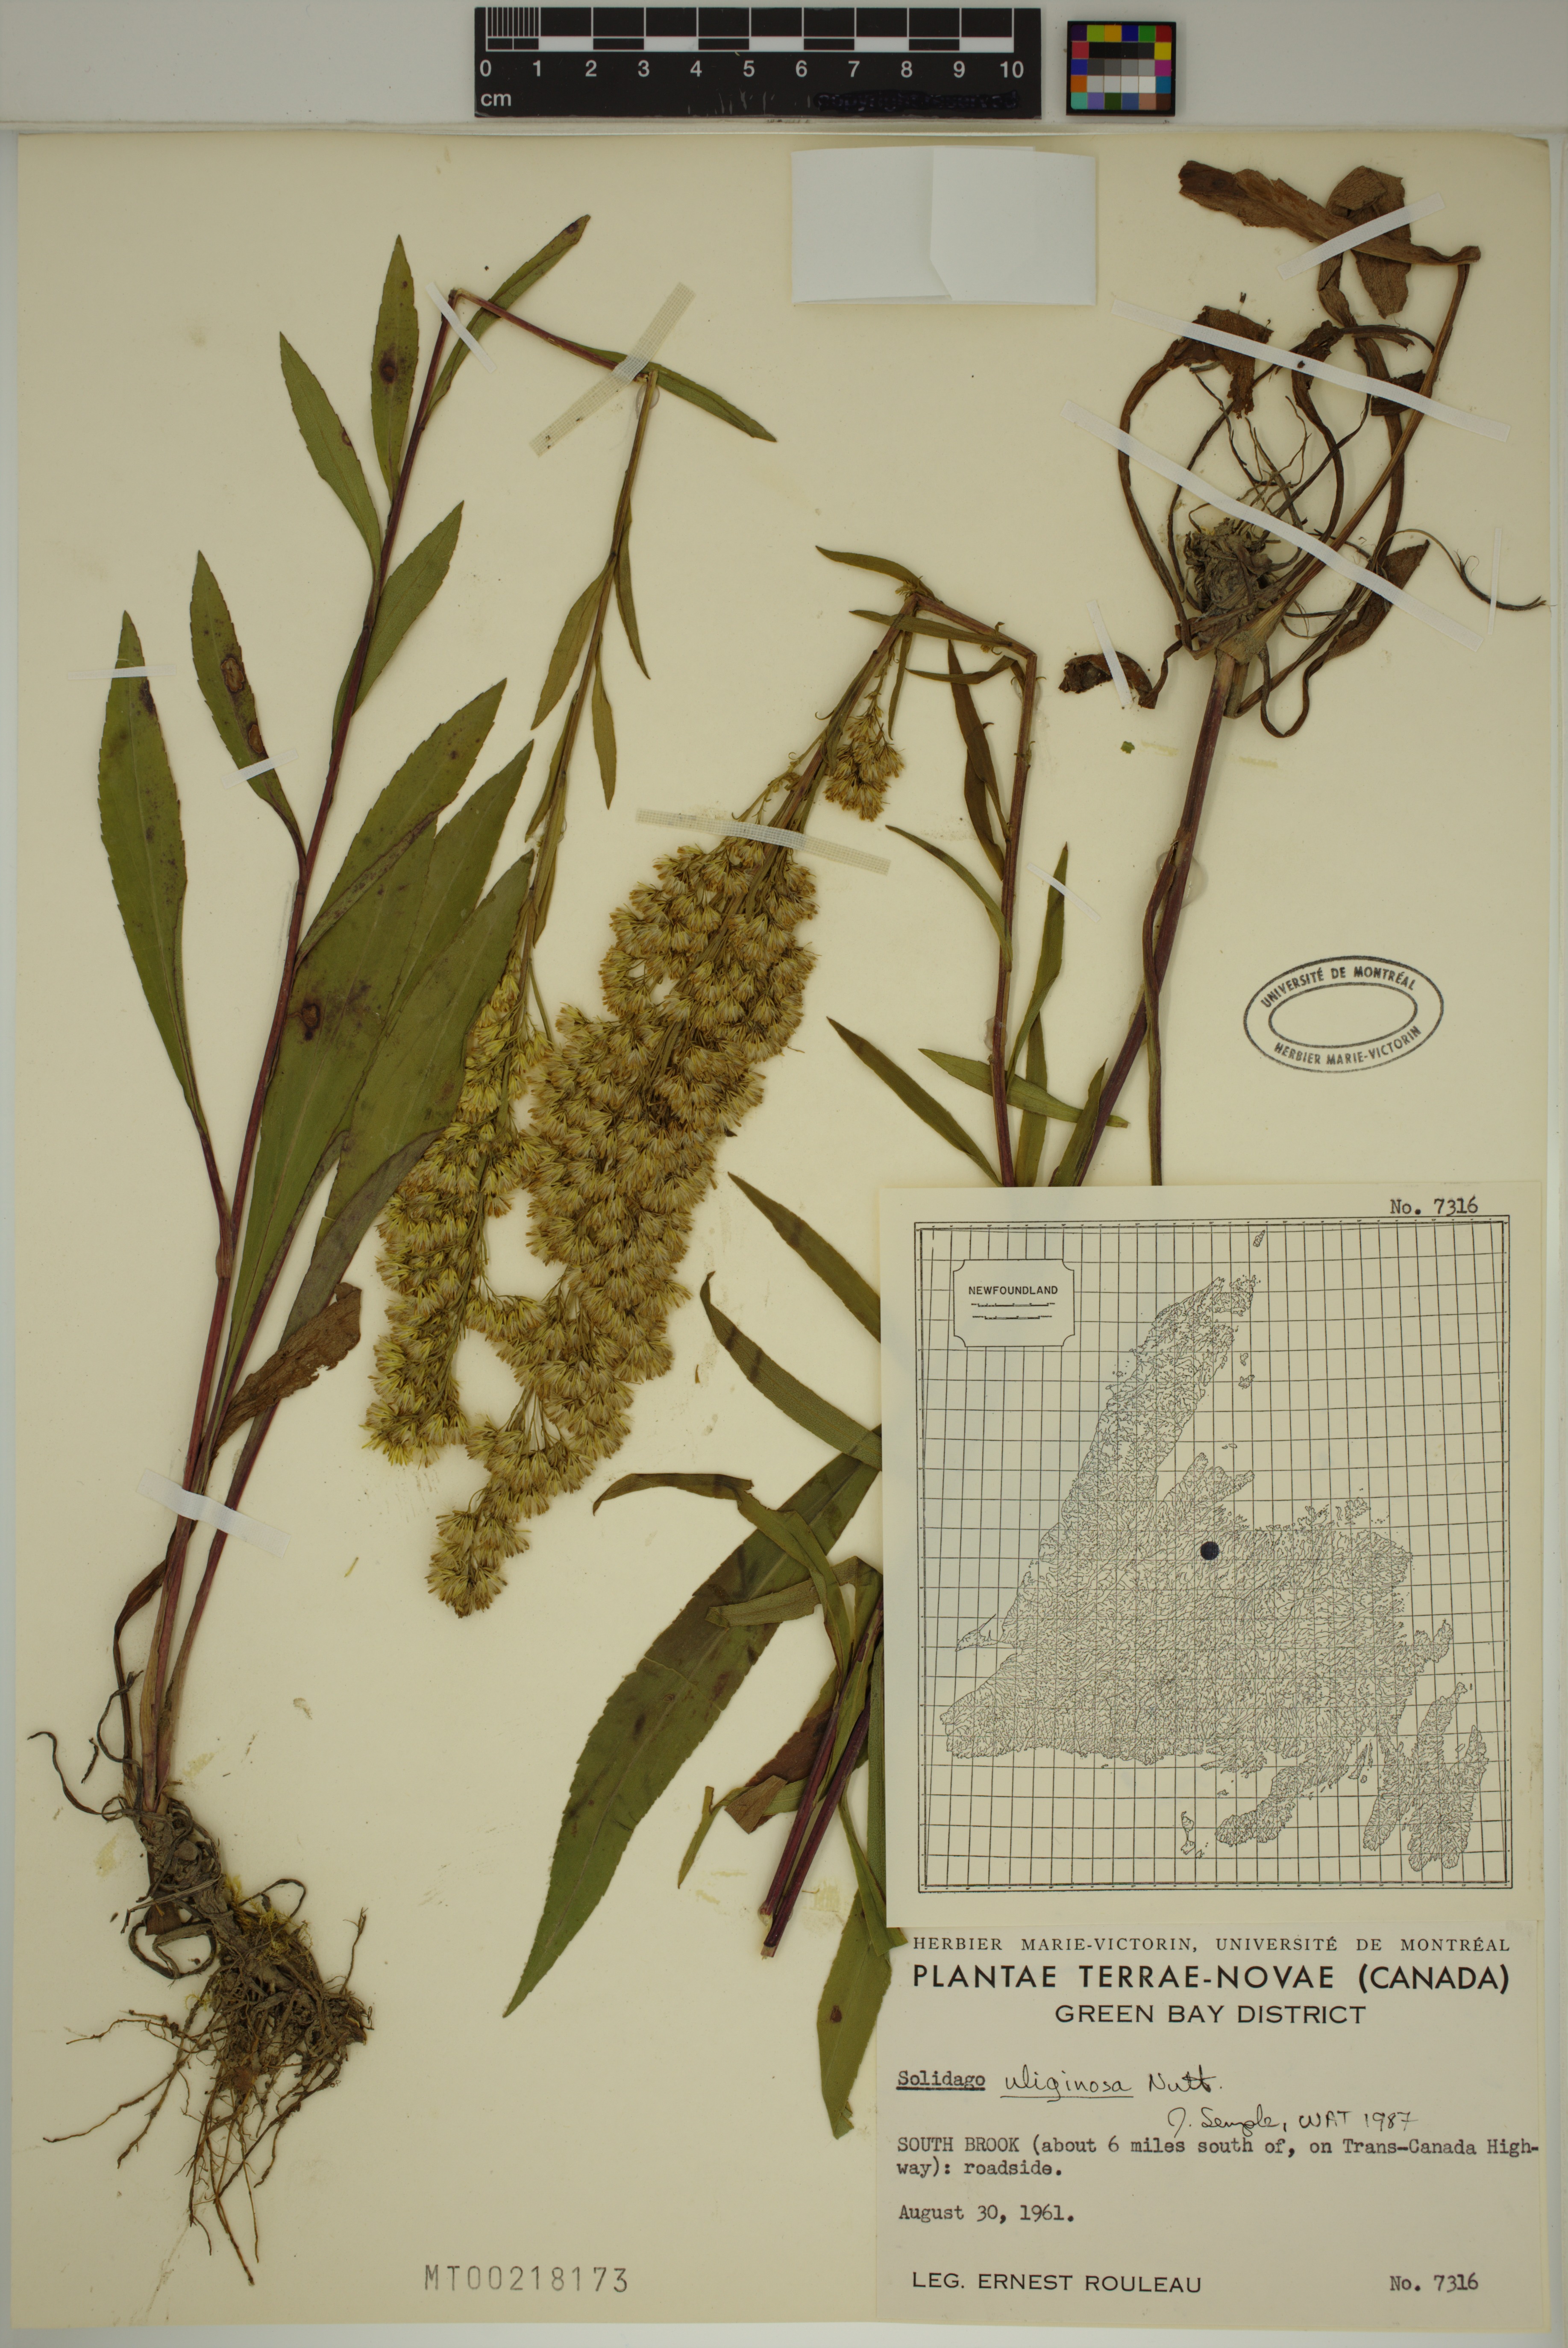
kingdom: Plantae
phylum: Tracheophyta
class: Magnoliopsida
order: Asterales
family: Asteraceae
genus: Solidago
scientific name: Solidago uliginosa
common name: Bog goldenrod
